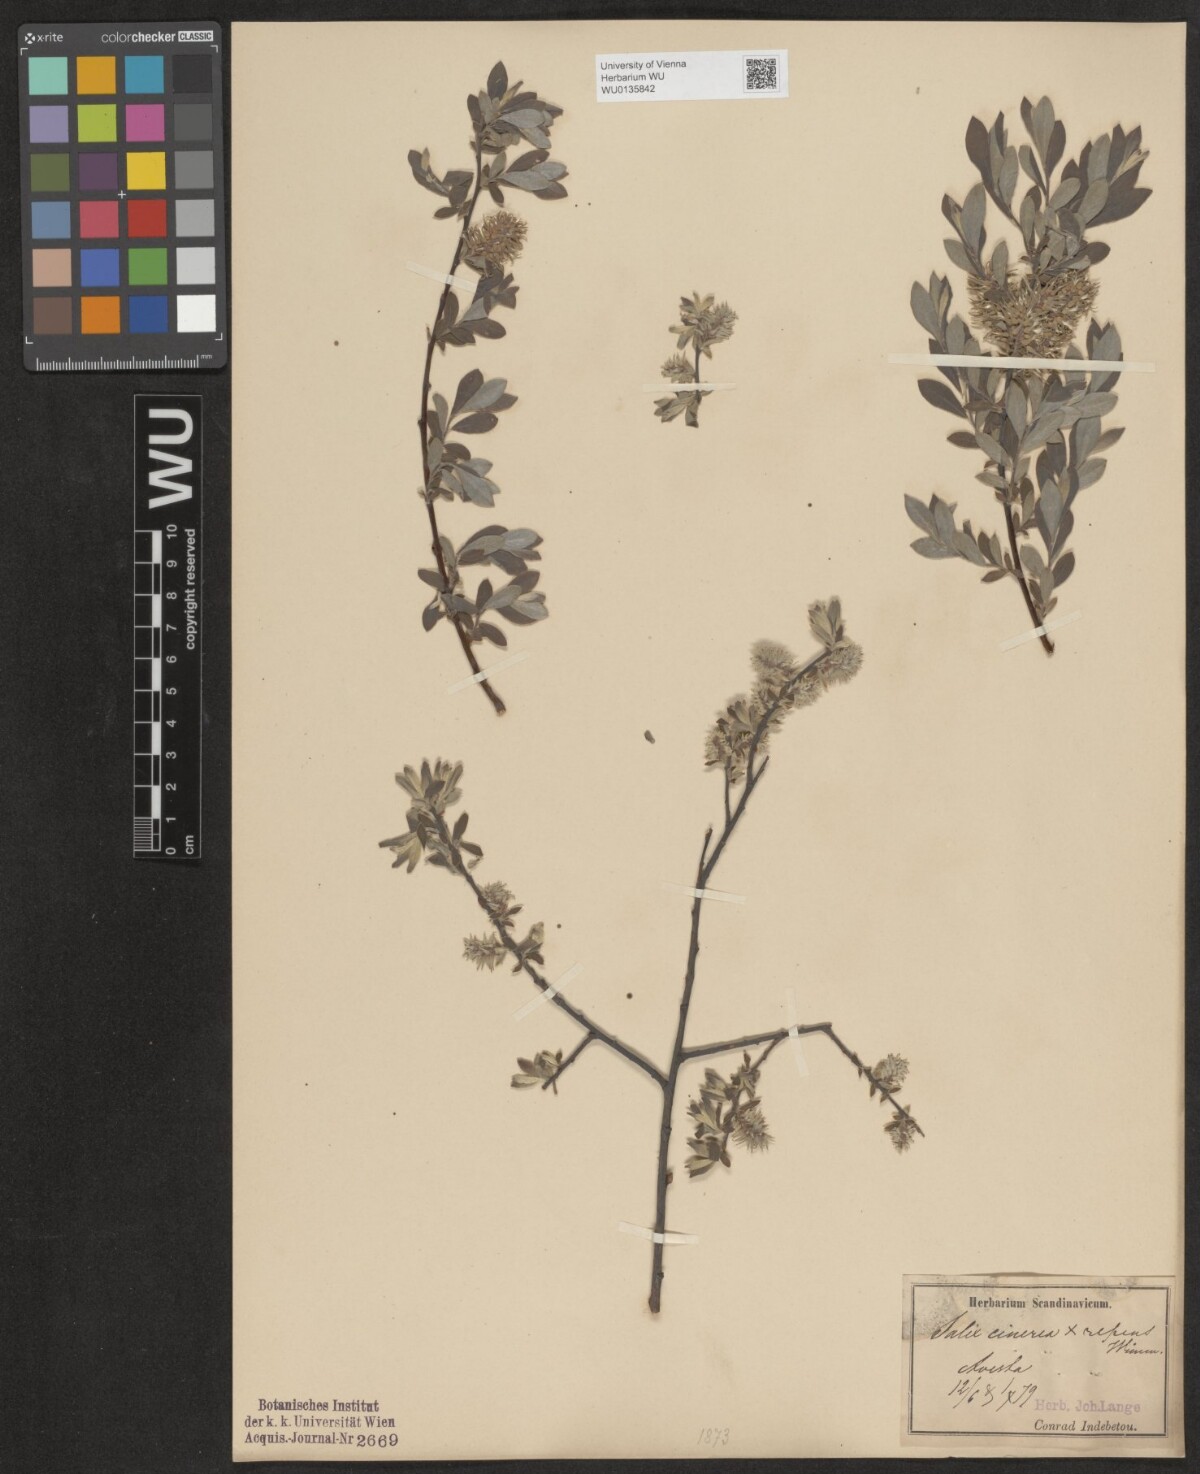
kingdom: Plantae
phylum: Tracheophyta
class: Magnoliopsida
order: Malpighiales
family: Salicaceae
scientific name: Salicaceae
